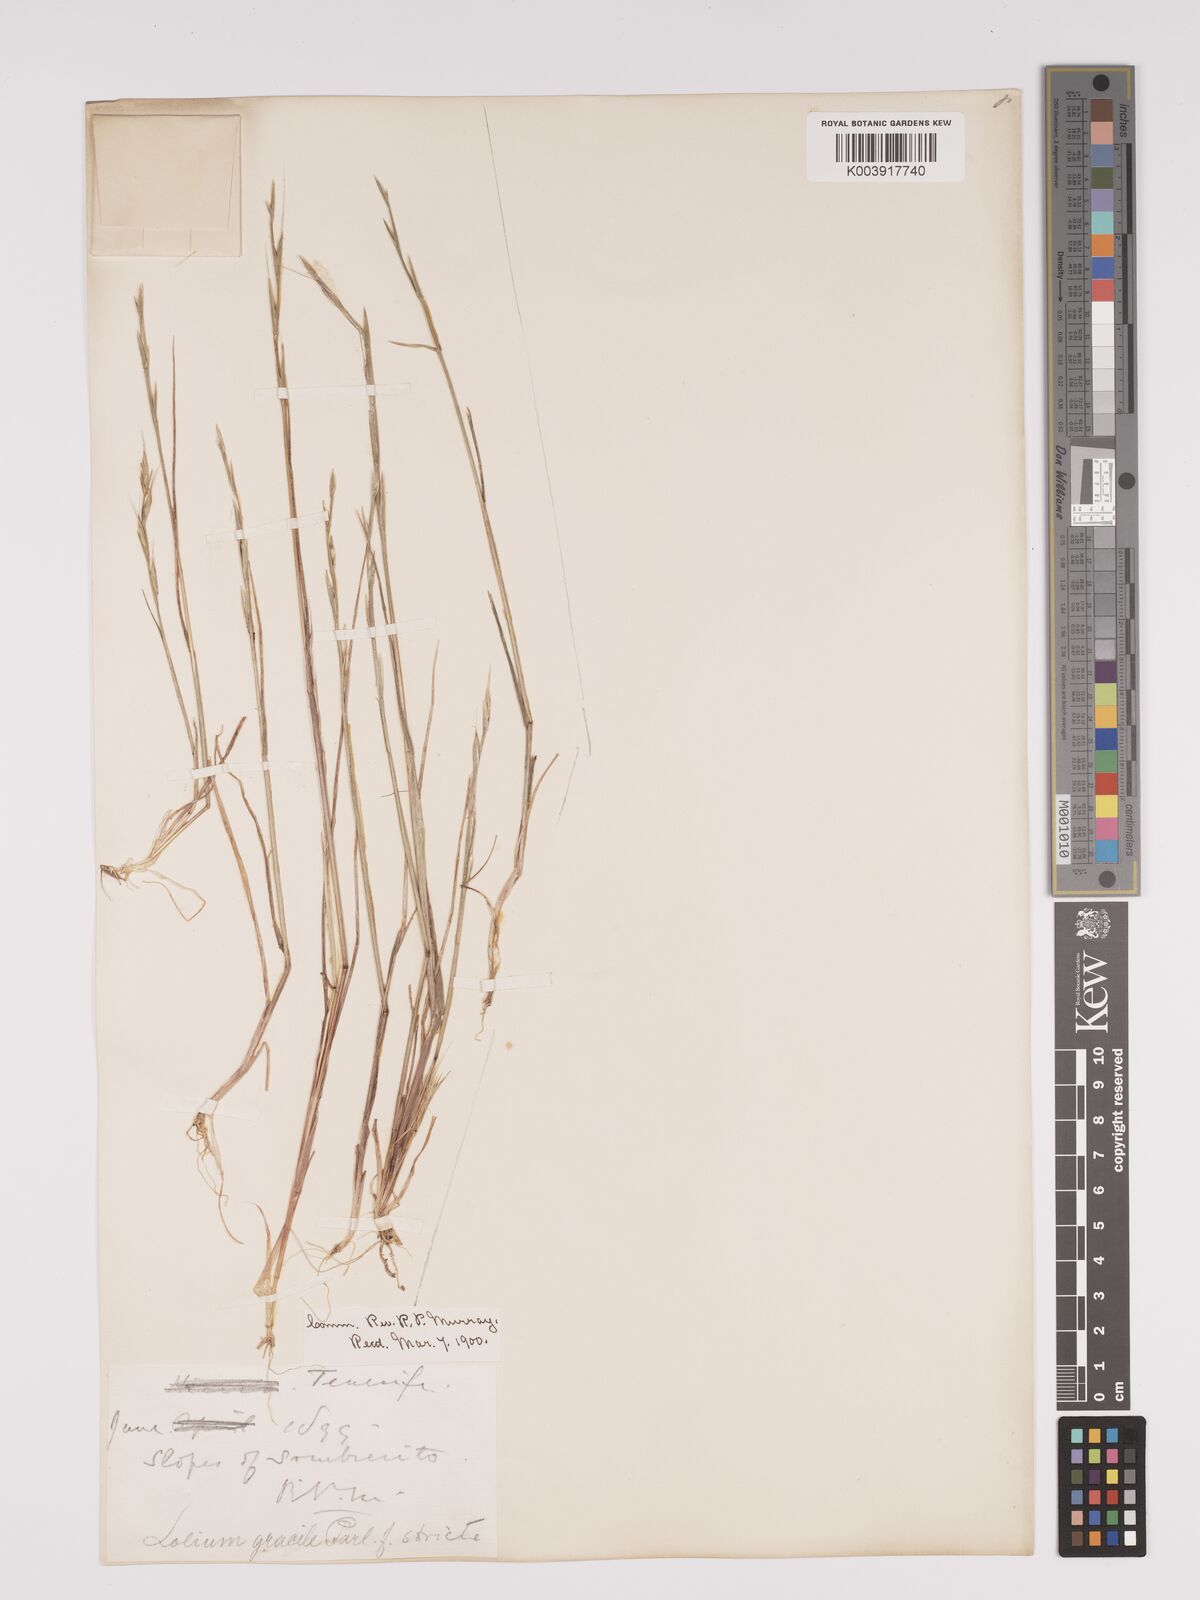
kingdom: Plantae
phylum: Tracheophyta
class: Liliopsida
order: Poales
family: Poaceae
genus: Lolium
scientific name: Lolium canariense
